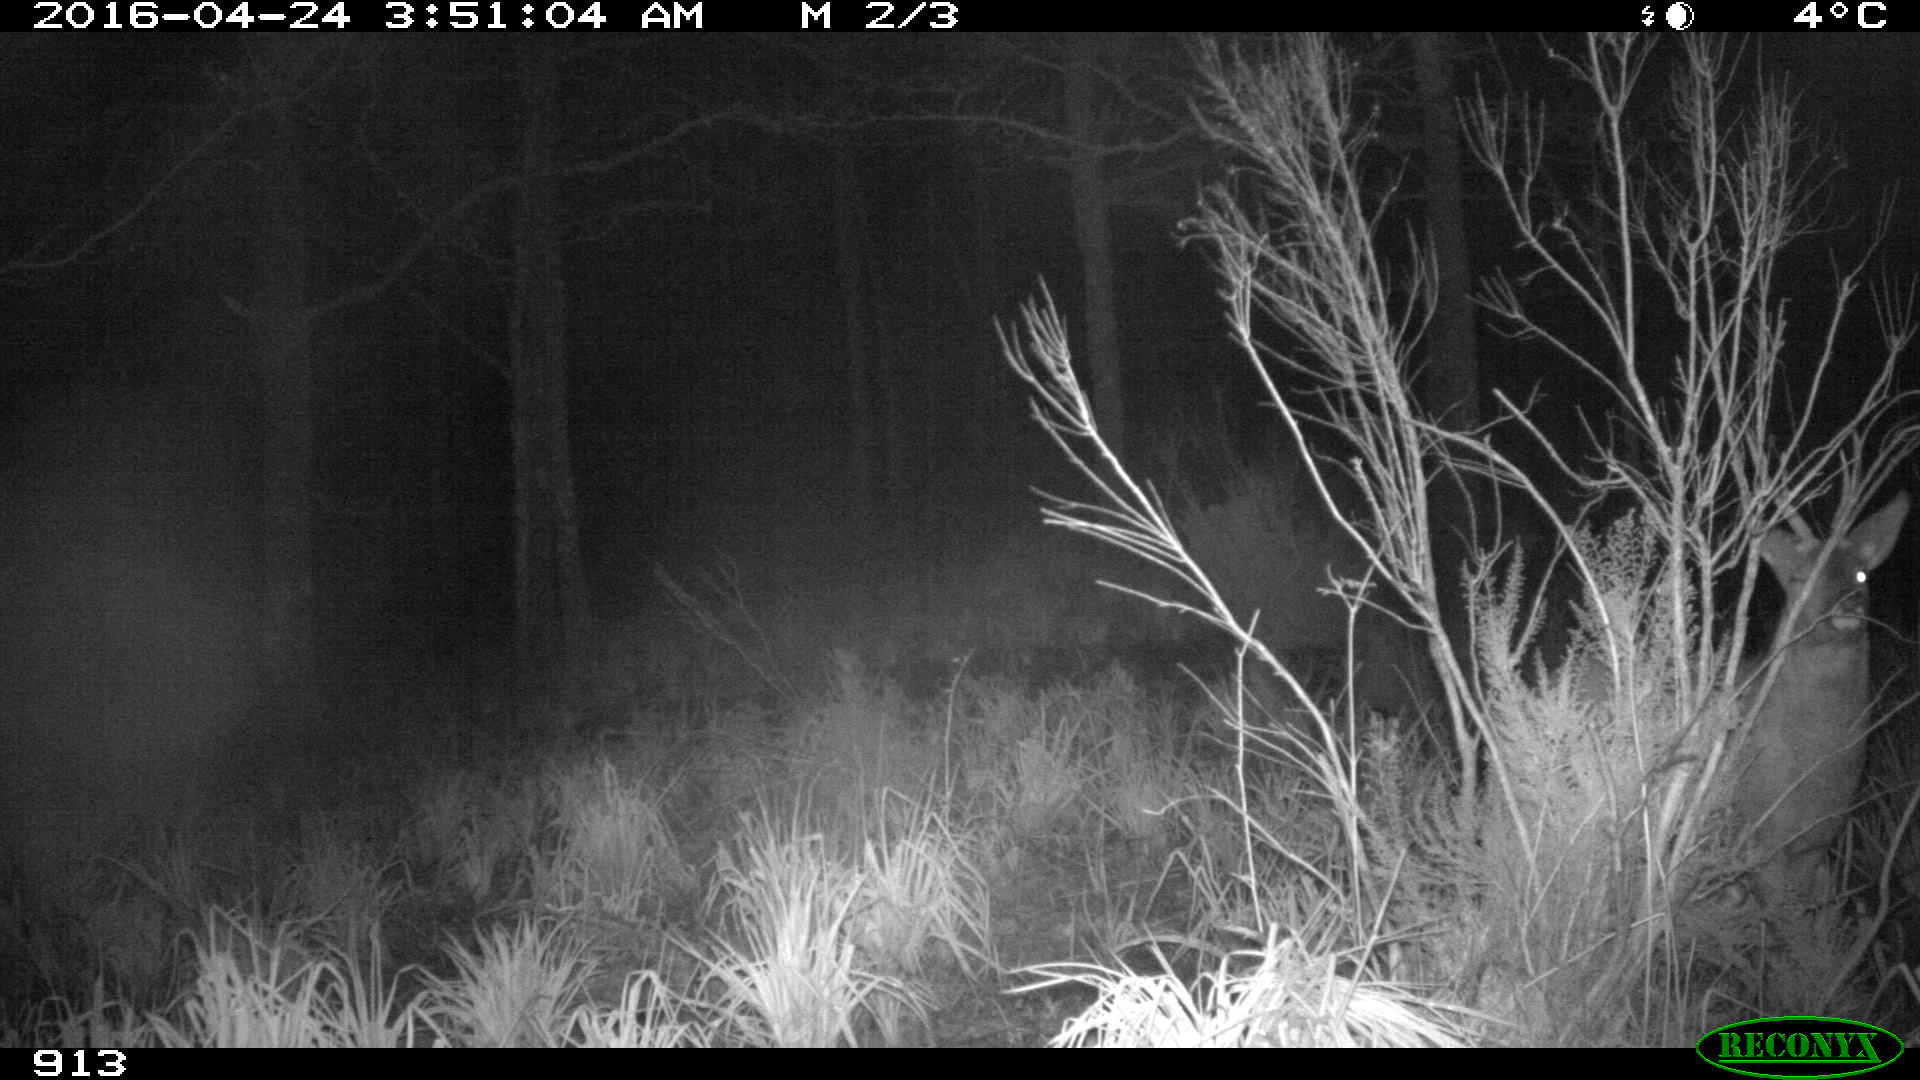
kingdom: Animalia
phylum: Chordata
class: Mammalia
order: Artiodactyla
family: Cervidae
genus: Capreolus
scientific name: Capreolus capreolus
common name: Western roe deer
